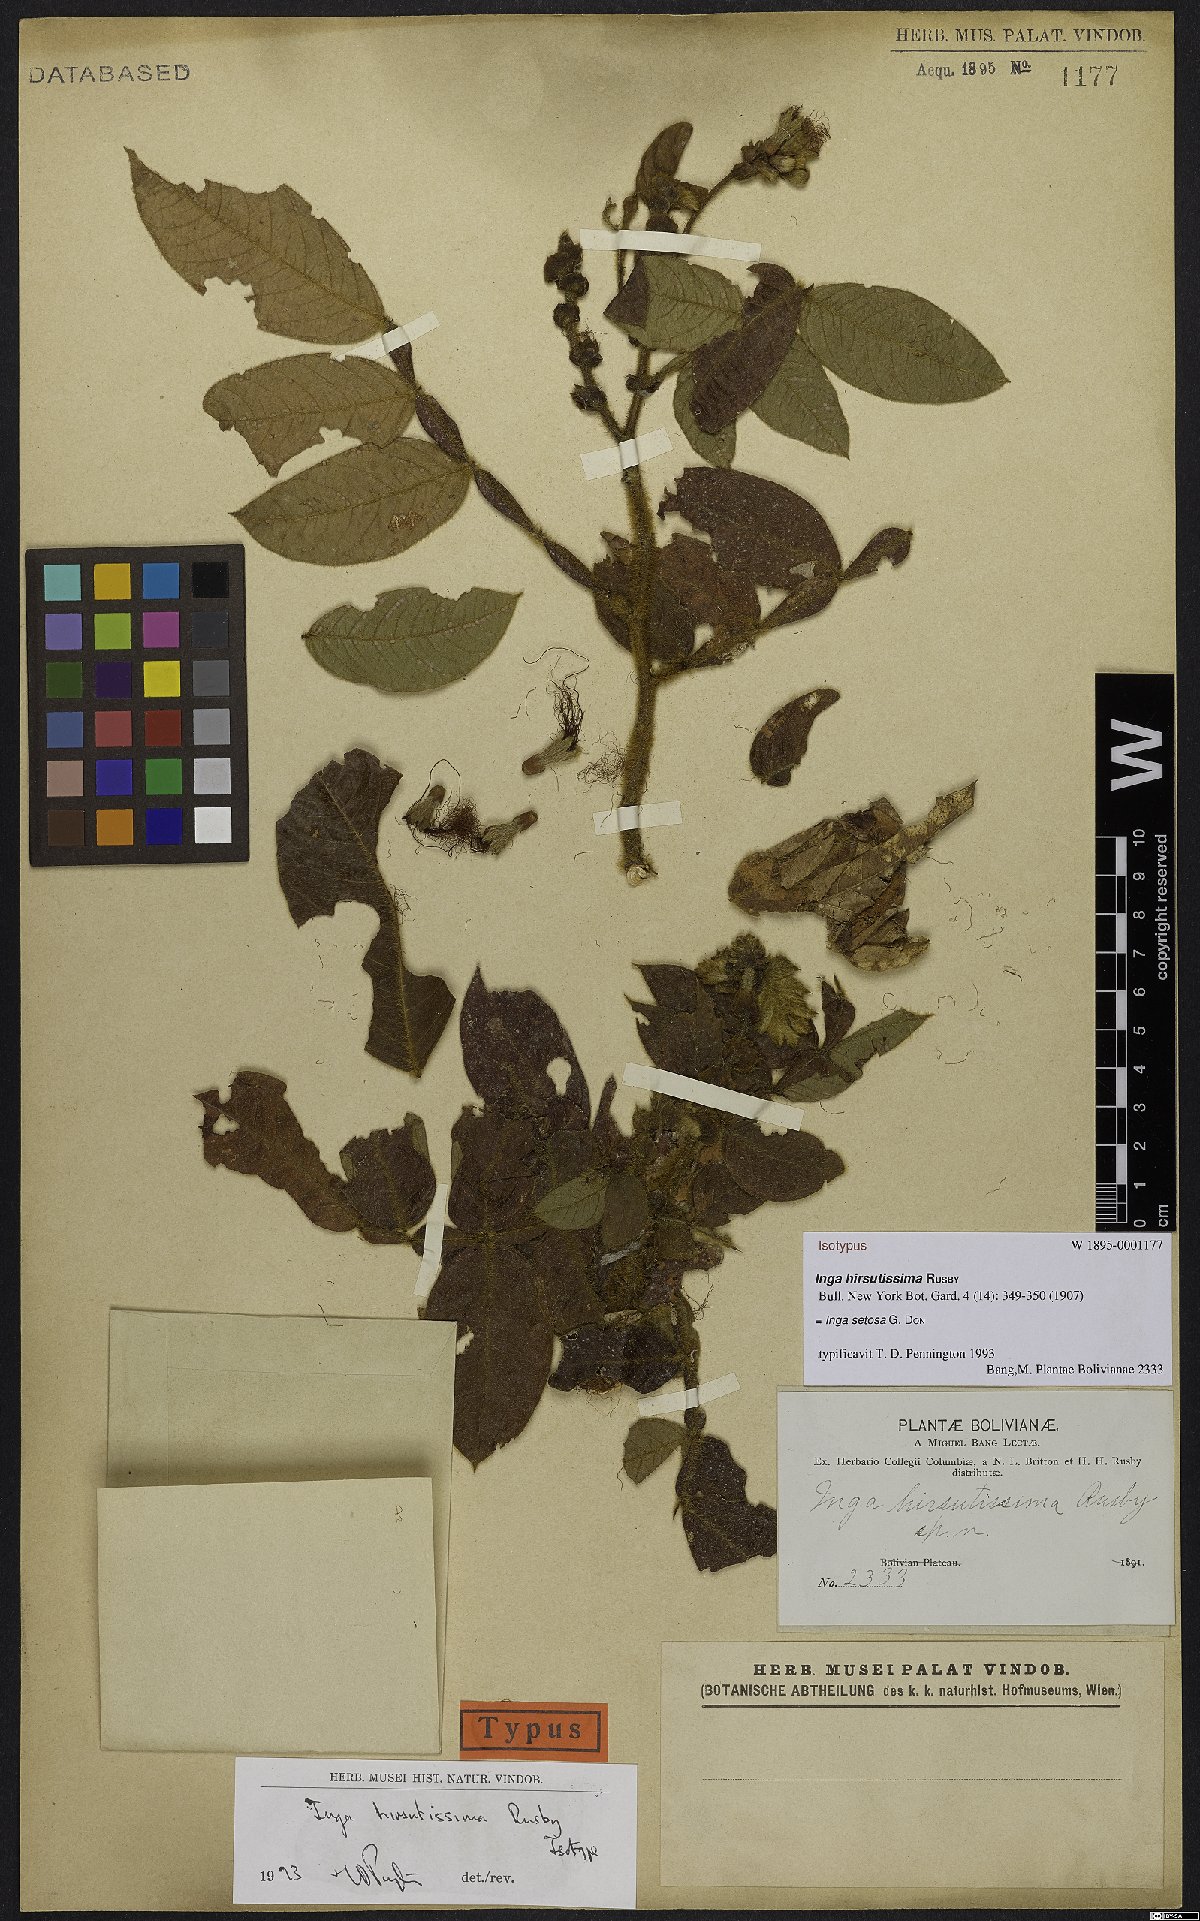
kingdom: Plantae
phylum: Tracheophyta
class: Magnoliopsida
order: Fabales
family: Fabaceae
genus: Inga
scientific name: Inga setosa
